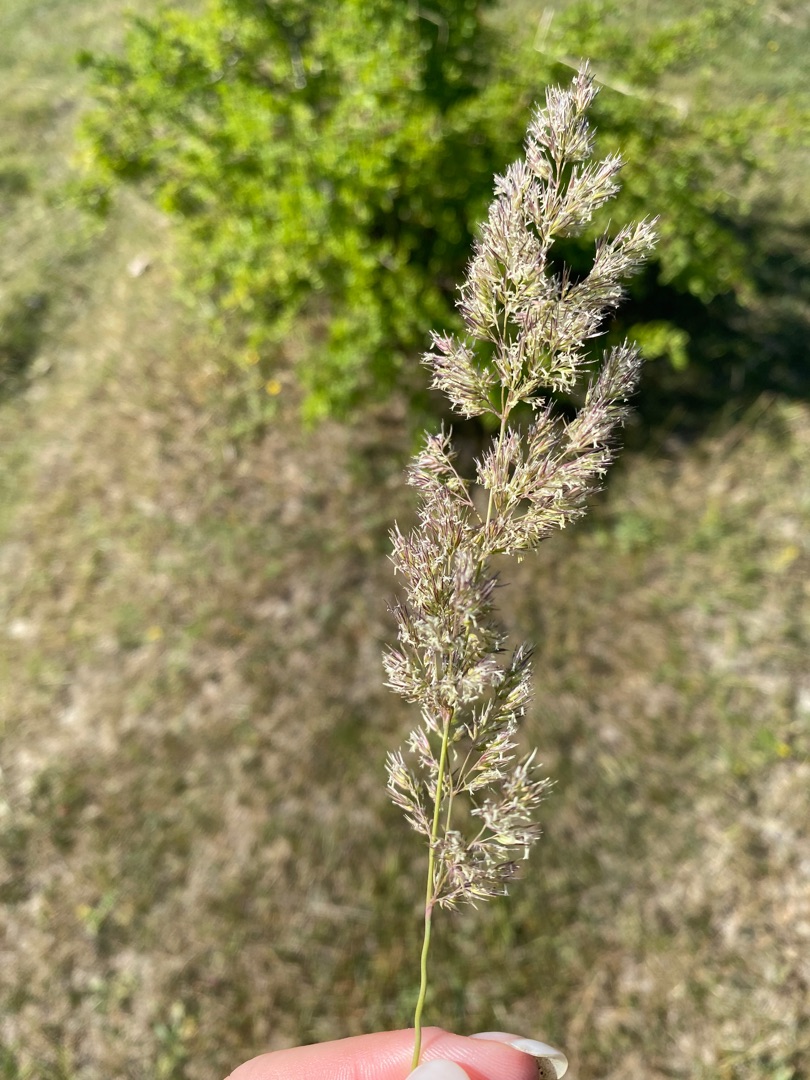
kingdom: Plantae
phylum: Tracheophyta
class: Liliopsida
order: Poales
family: Poaceae
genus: Calamagrostis
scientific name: Calamagrostis epigejos
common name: Bjerg-rørhvene
